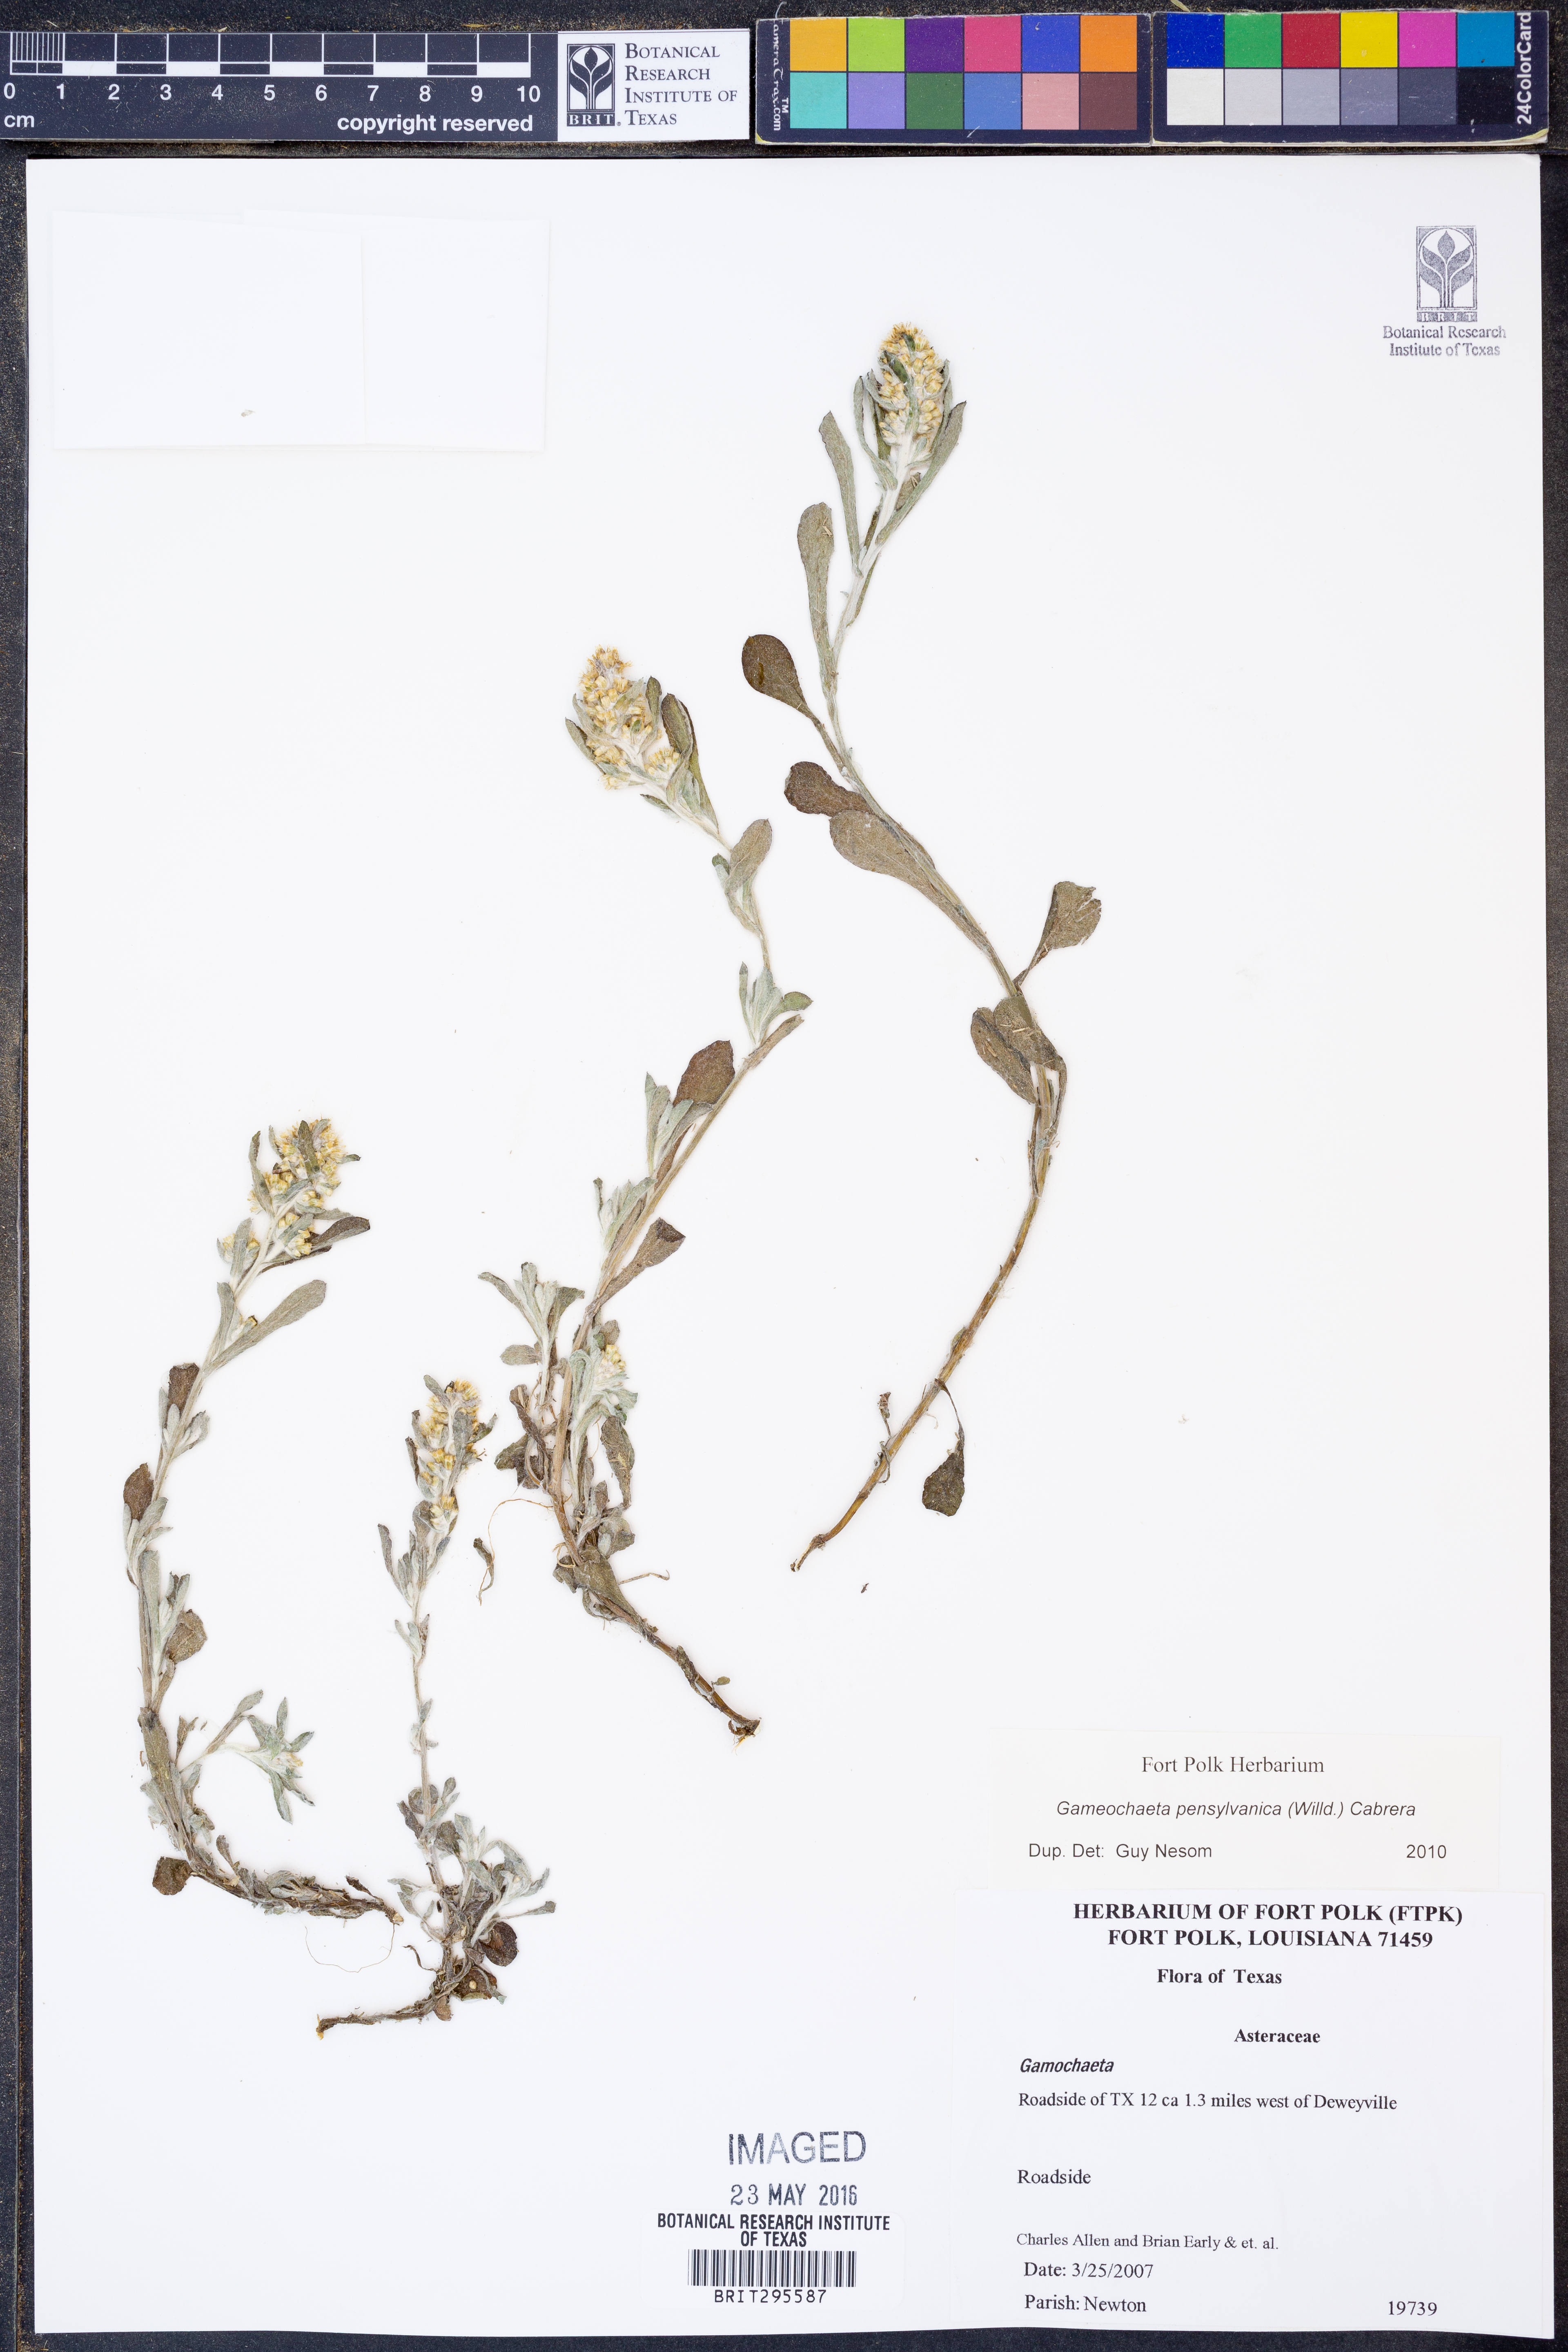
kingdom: Plantae
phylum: Tracheophyta
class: Magnoliopsida
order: Asterales
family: Asteraceae
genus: Gamochaeta
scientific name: Gamochaeta pensylvanica
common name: Pennsylvania everlasting
